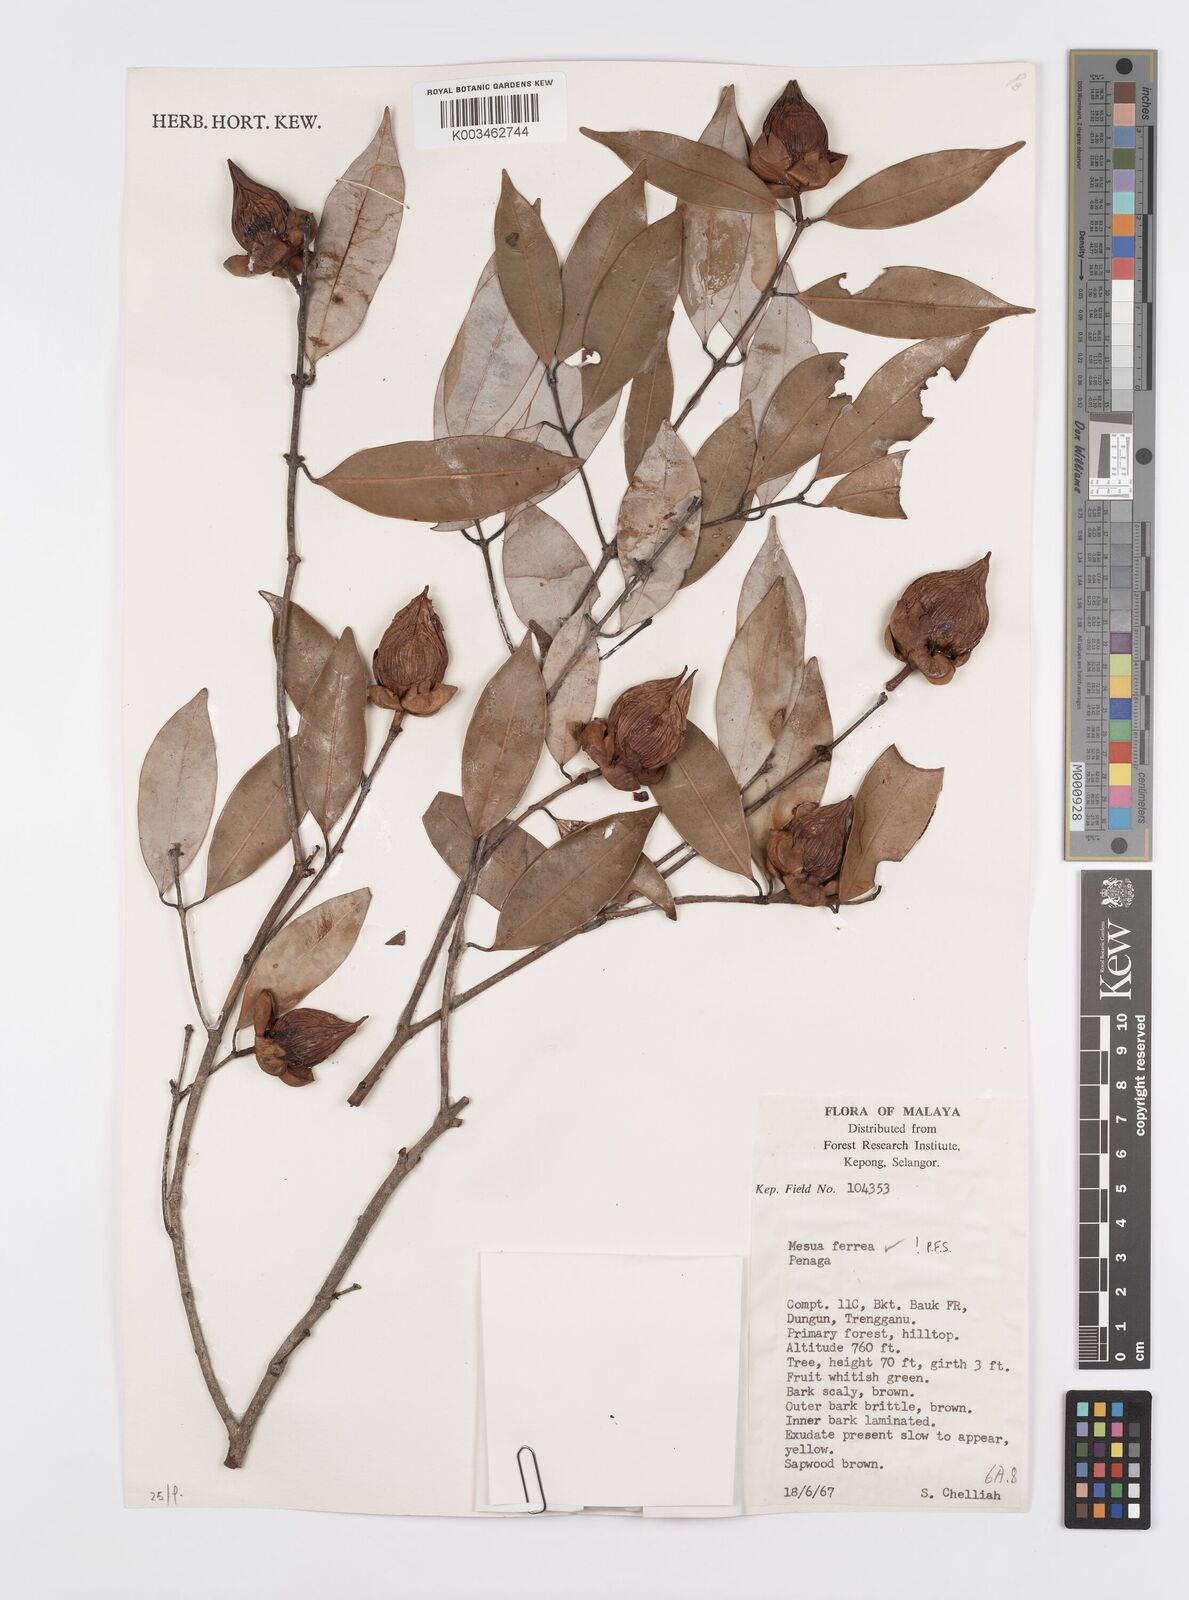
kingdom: Plantae
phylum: Tracheophyta
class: Magnoliopsida
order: Malpighiales
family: Calophyllaceae
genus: Mesua
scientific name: Mesua ferrea
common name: Mesua
